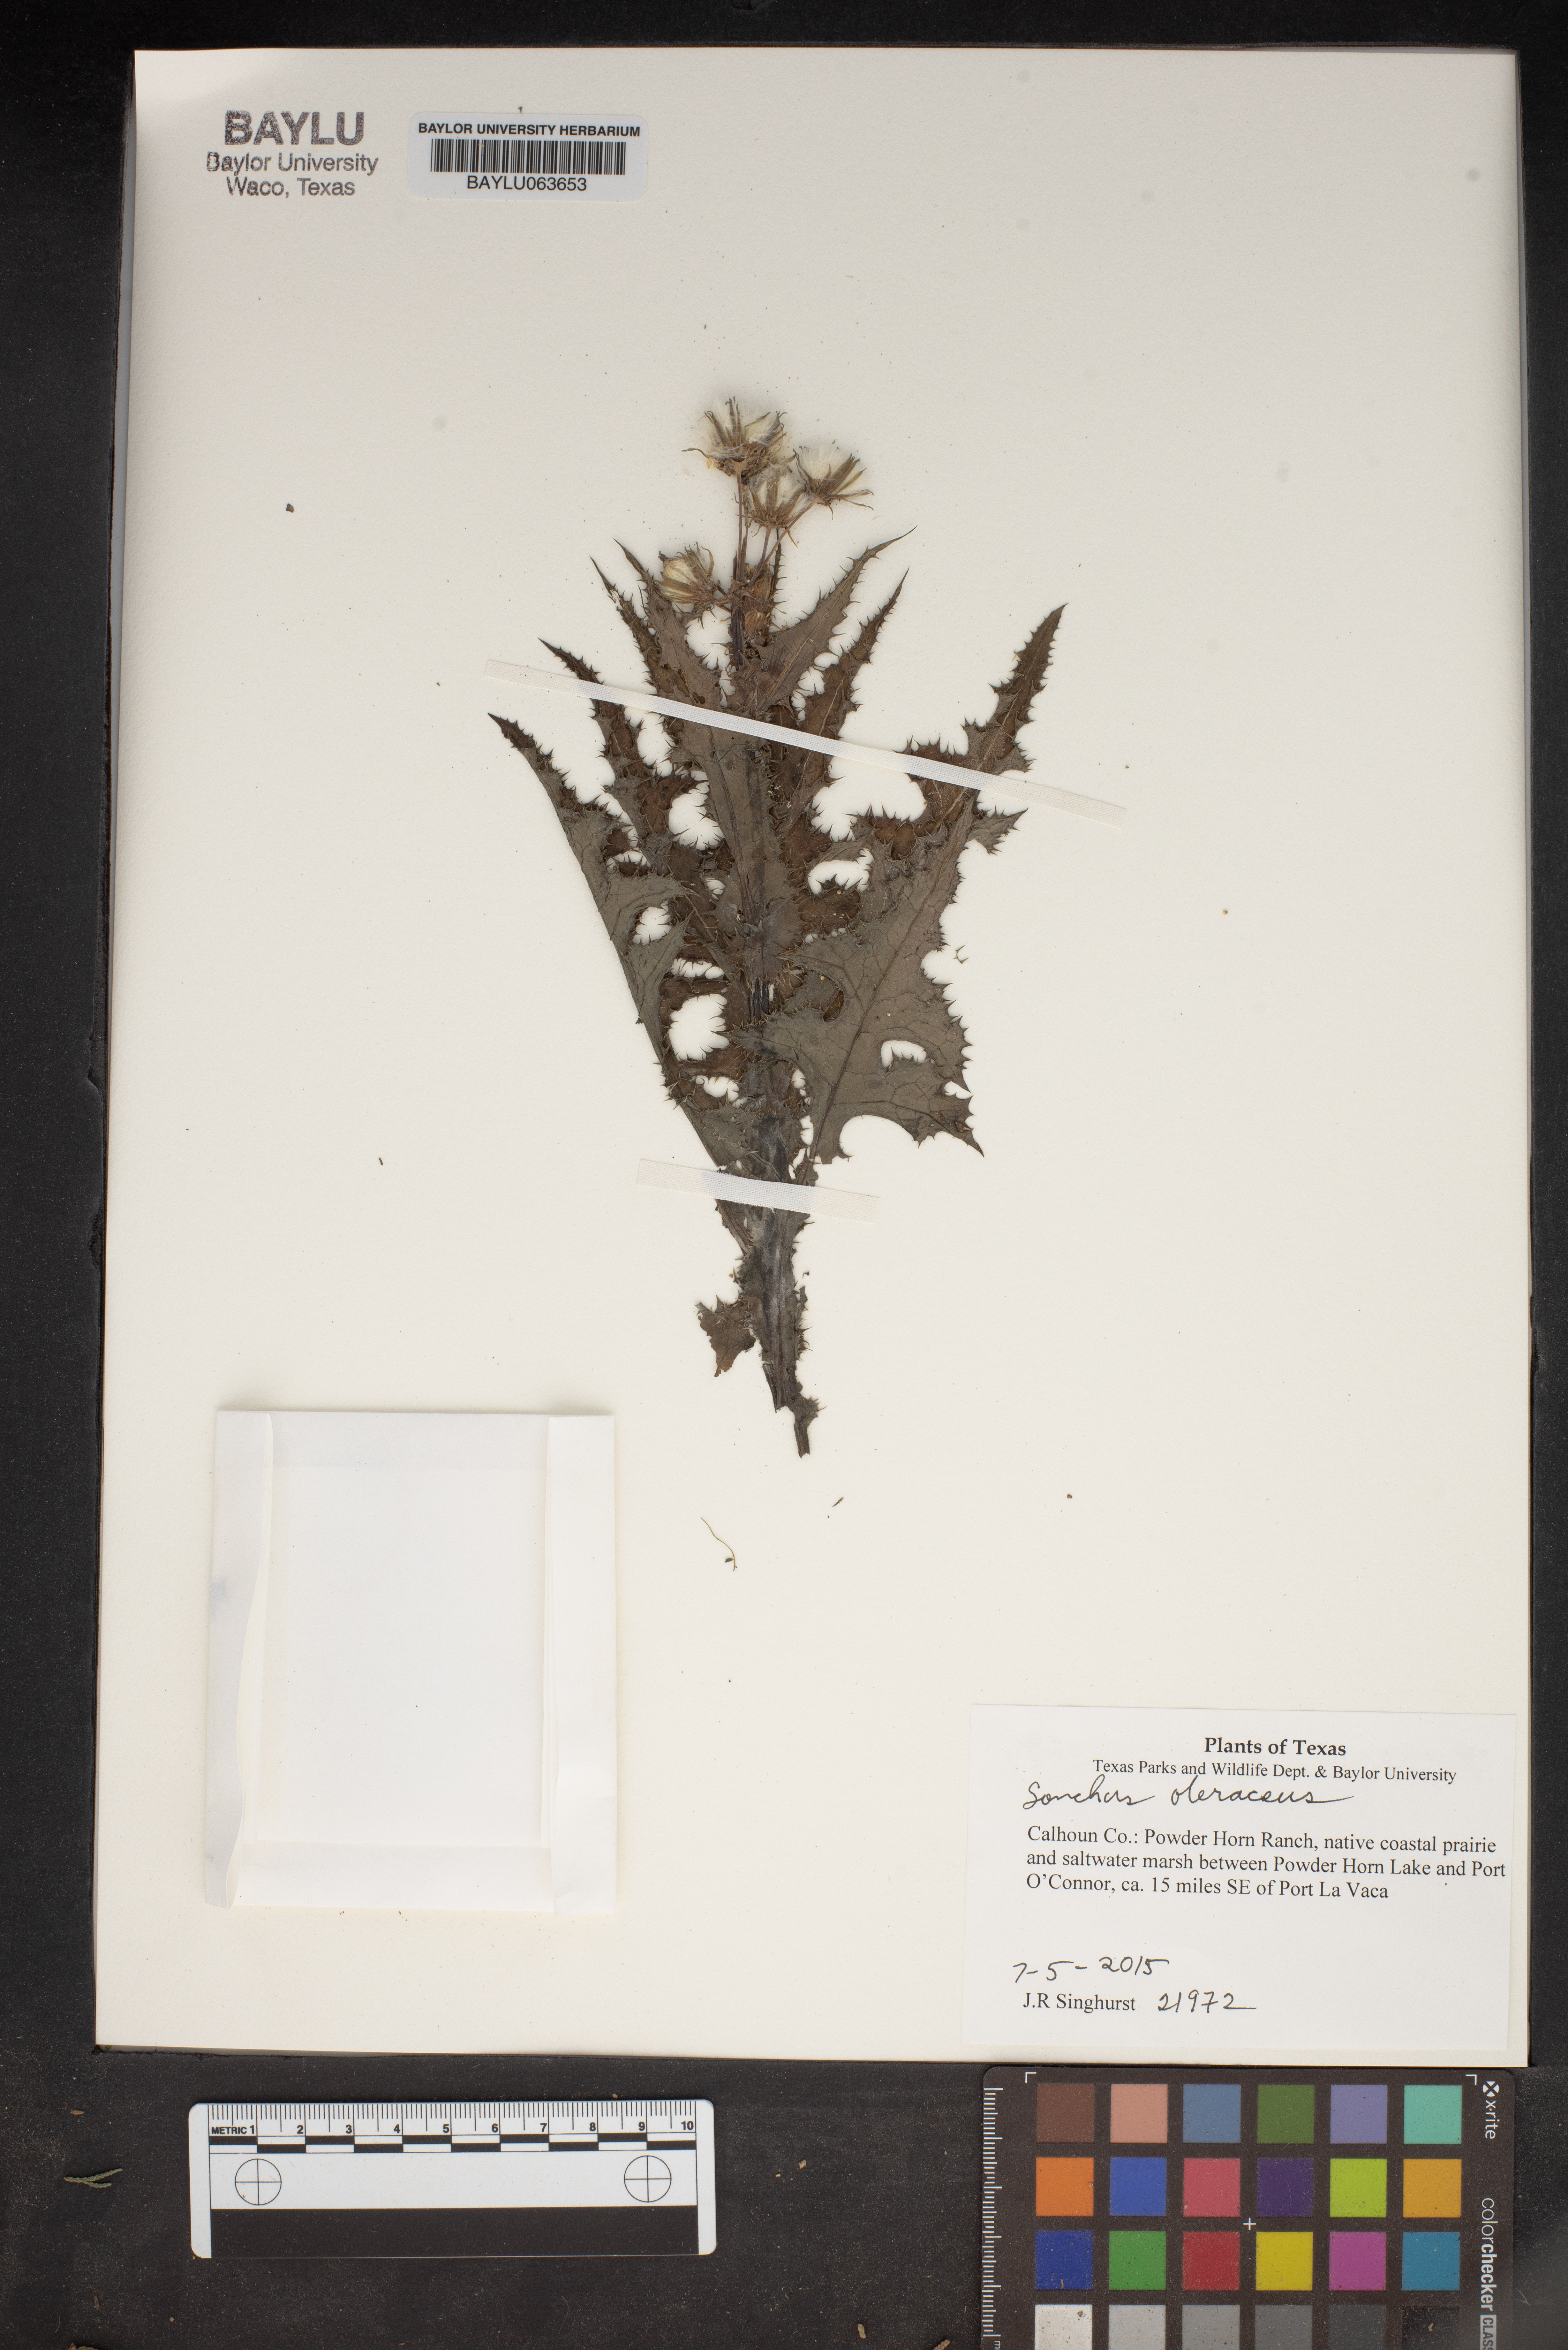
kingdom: Plantae
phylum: Tracheophyta
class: Magnoliopsida
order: Asterales
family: Asteraceae
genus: Sonchus
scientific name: Sonchus oleraceus
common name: Common sowthistle
